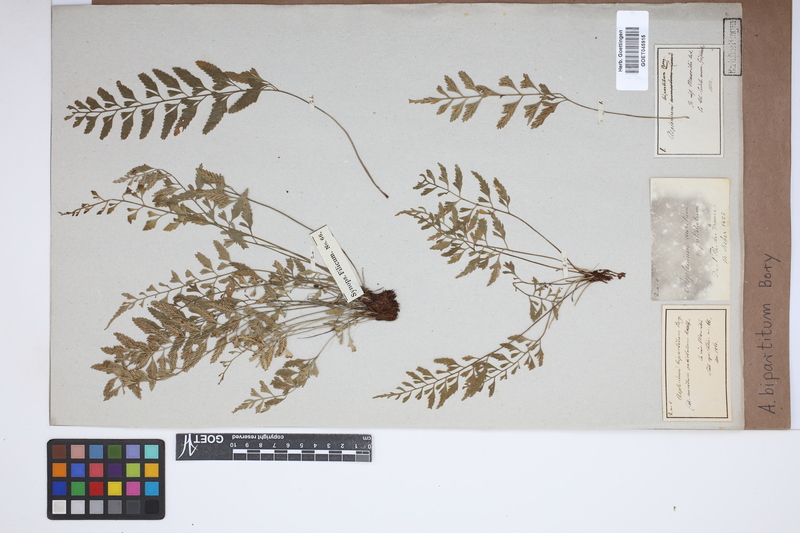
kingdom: Plantae
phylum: Tracheophyta
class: Polypodiopsida
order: Polypodiales
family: Aspleniaceae
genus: Asplenium
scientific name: Asplenium bipartitum
